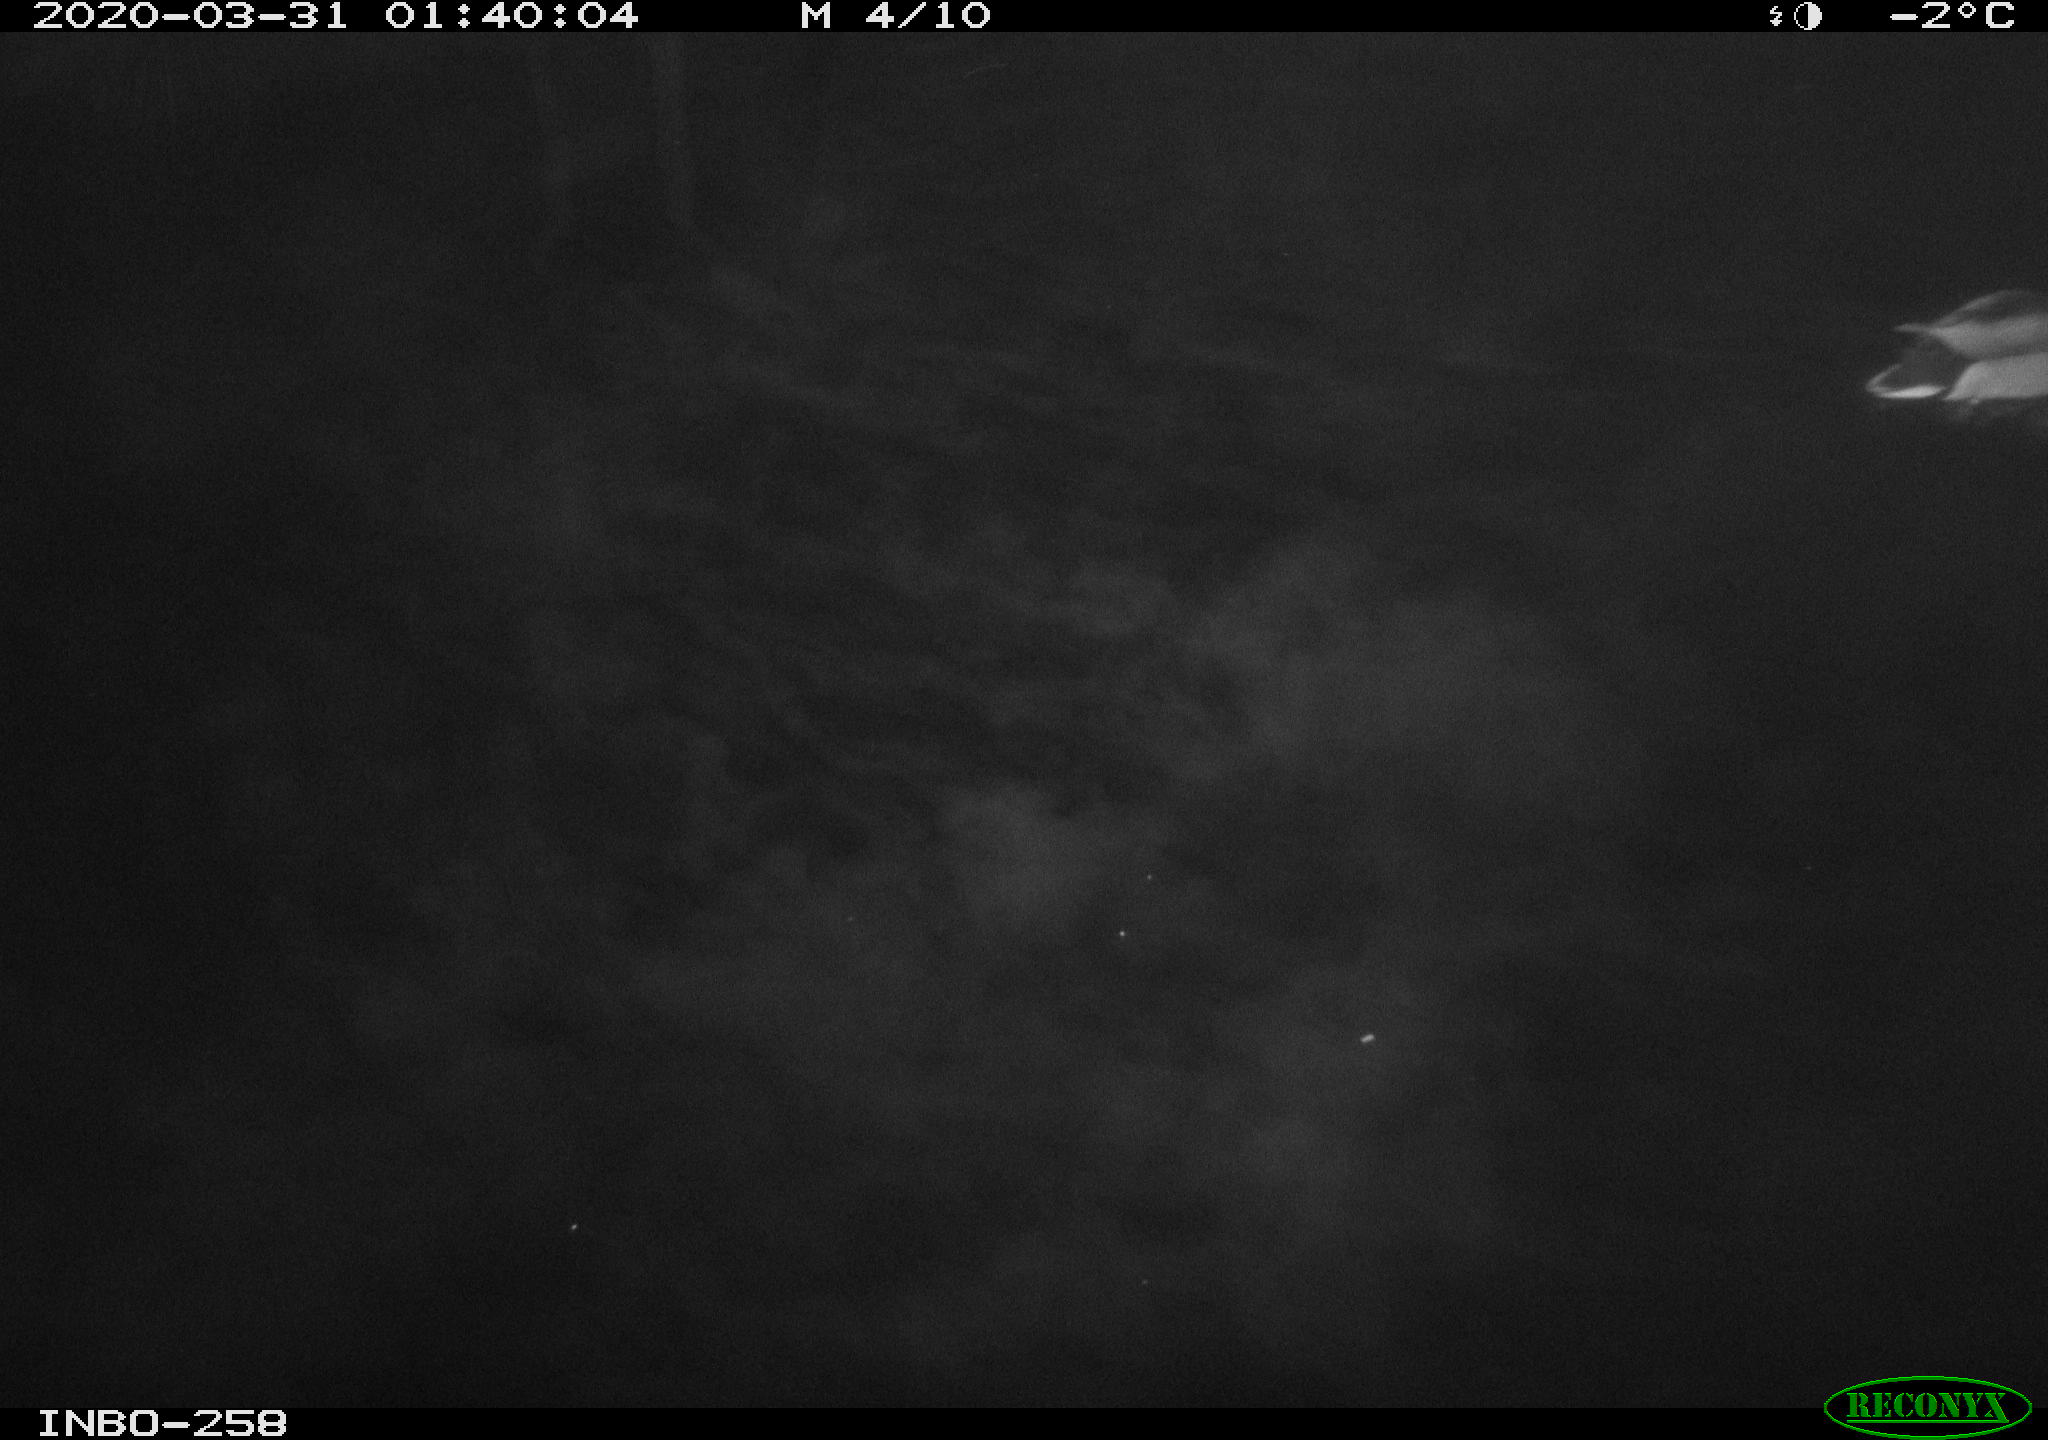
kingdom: Animalia
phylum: Chordata
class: Aves
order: Anseriformes
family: Anatidae
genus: Anas
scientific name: Anas platyrhynchos
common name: Mallard
